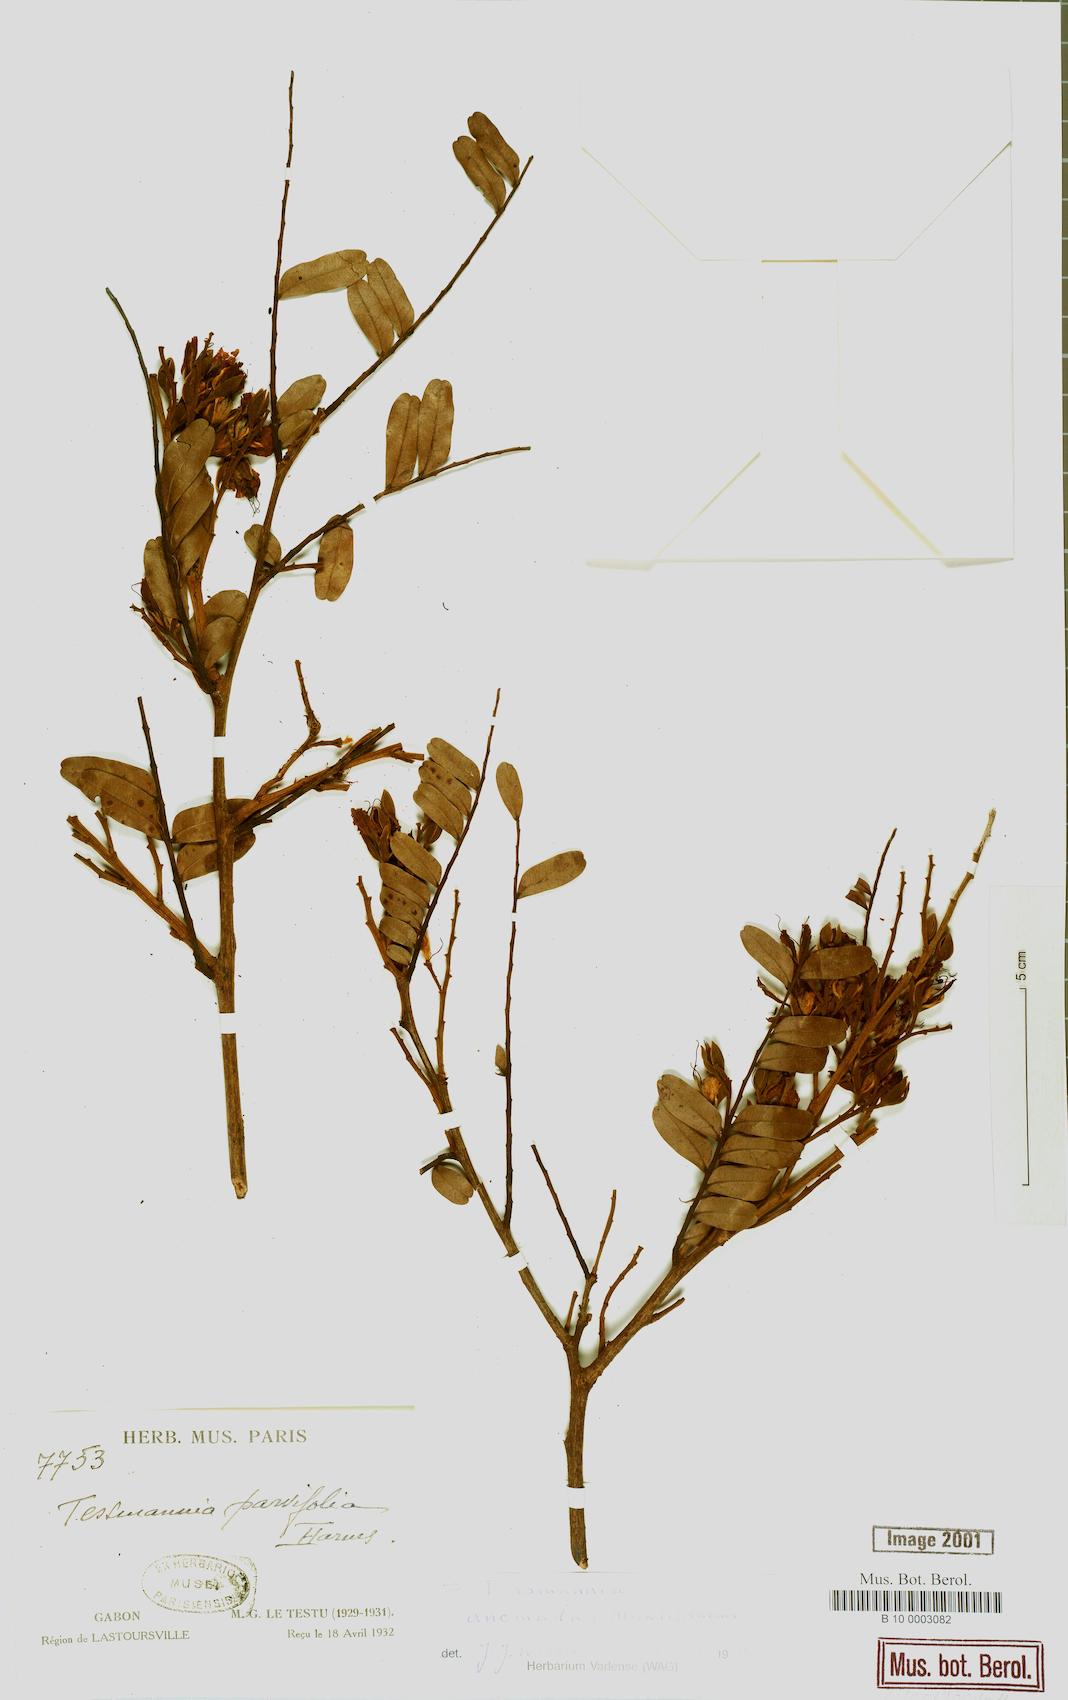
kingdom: Plantae
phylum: Tracheophyta
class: Magnoliopsida
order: Fabales
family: Fabaceae
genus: Tessmannia
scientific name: Tessmannia anomala
